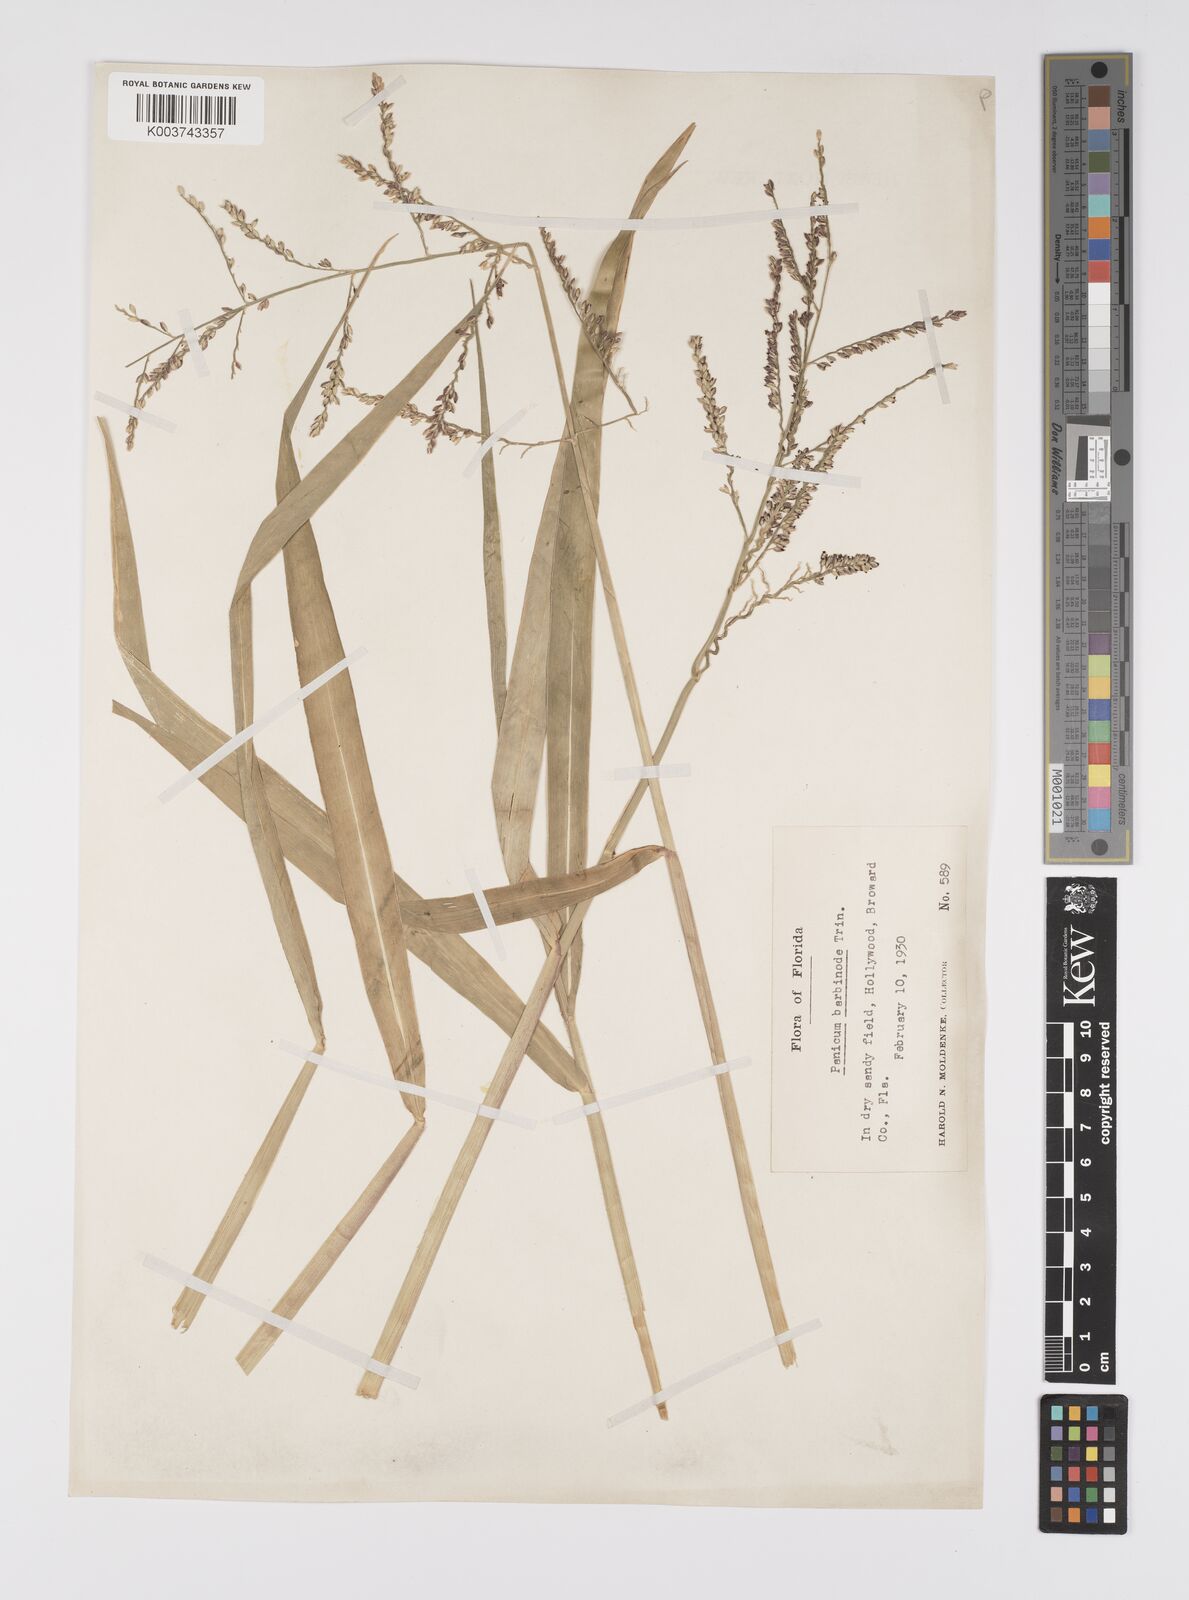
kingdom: Plantae
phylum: Tracheophyta
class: Liliopsida
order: Poales
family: Poaceae
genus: Urochloa
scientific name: Urochloa mutica
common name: Para grass
